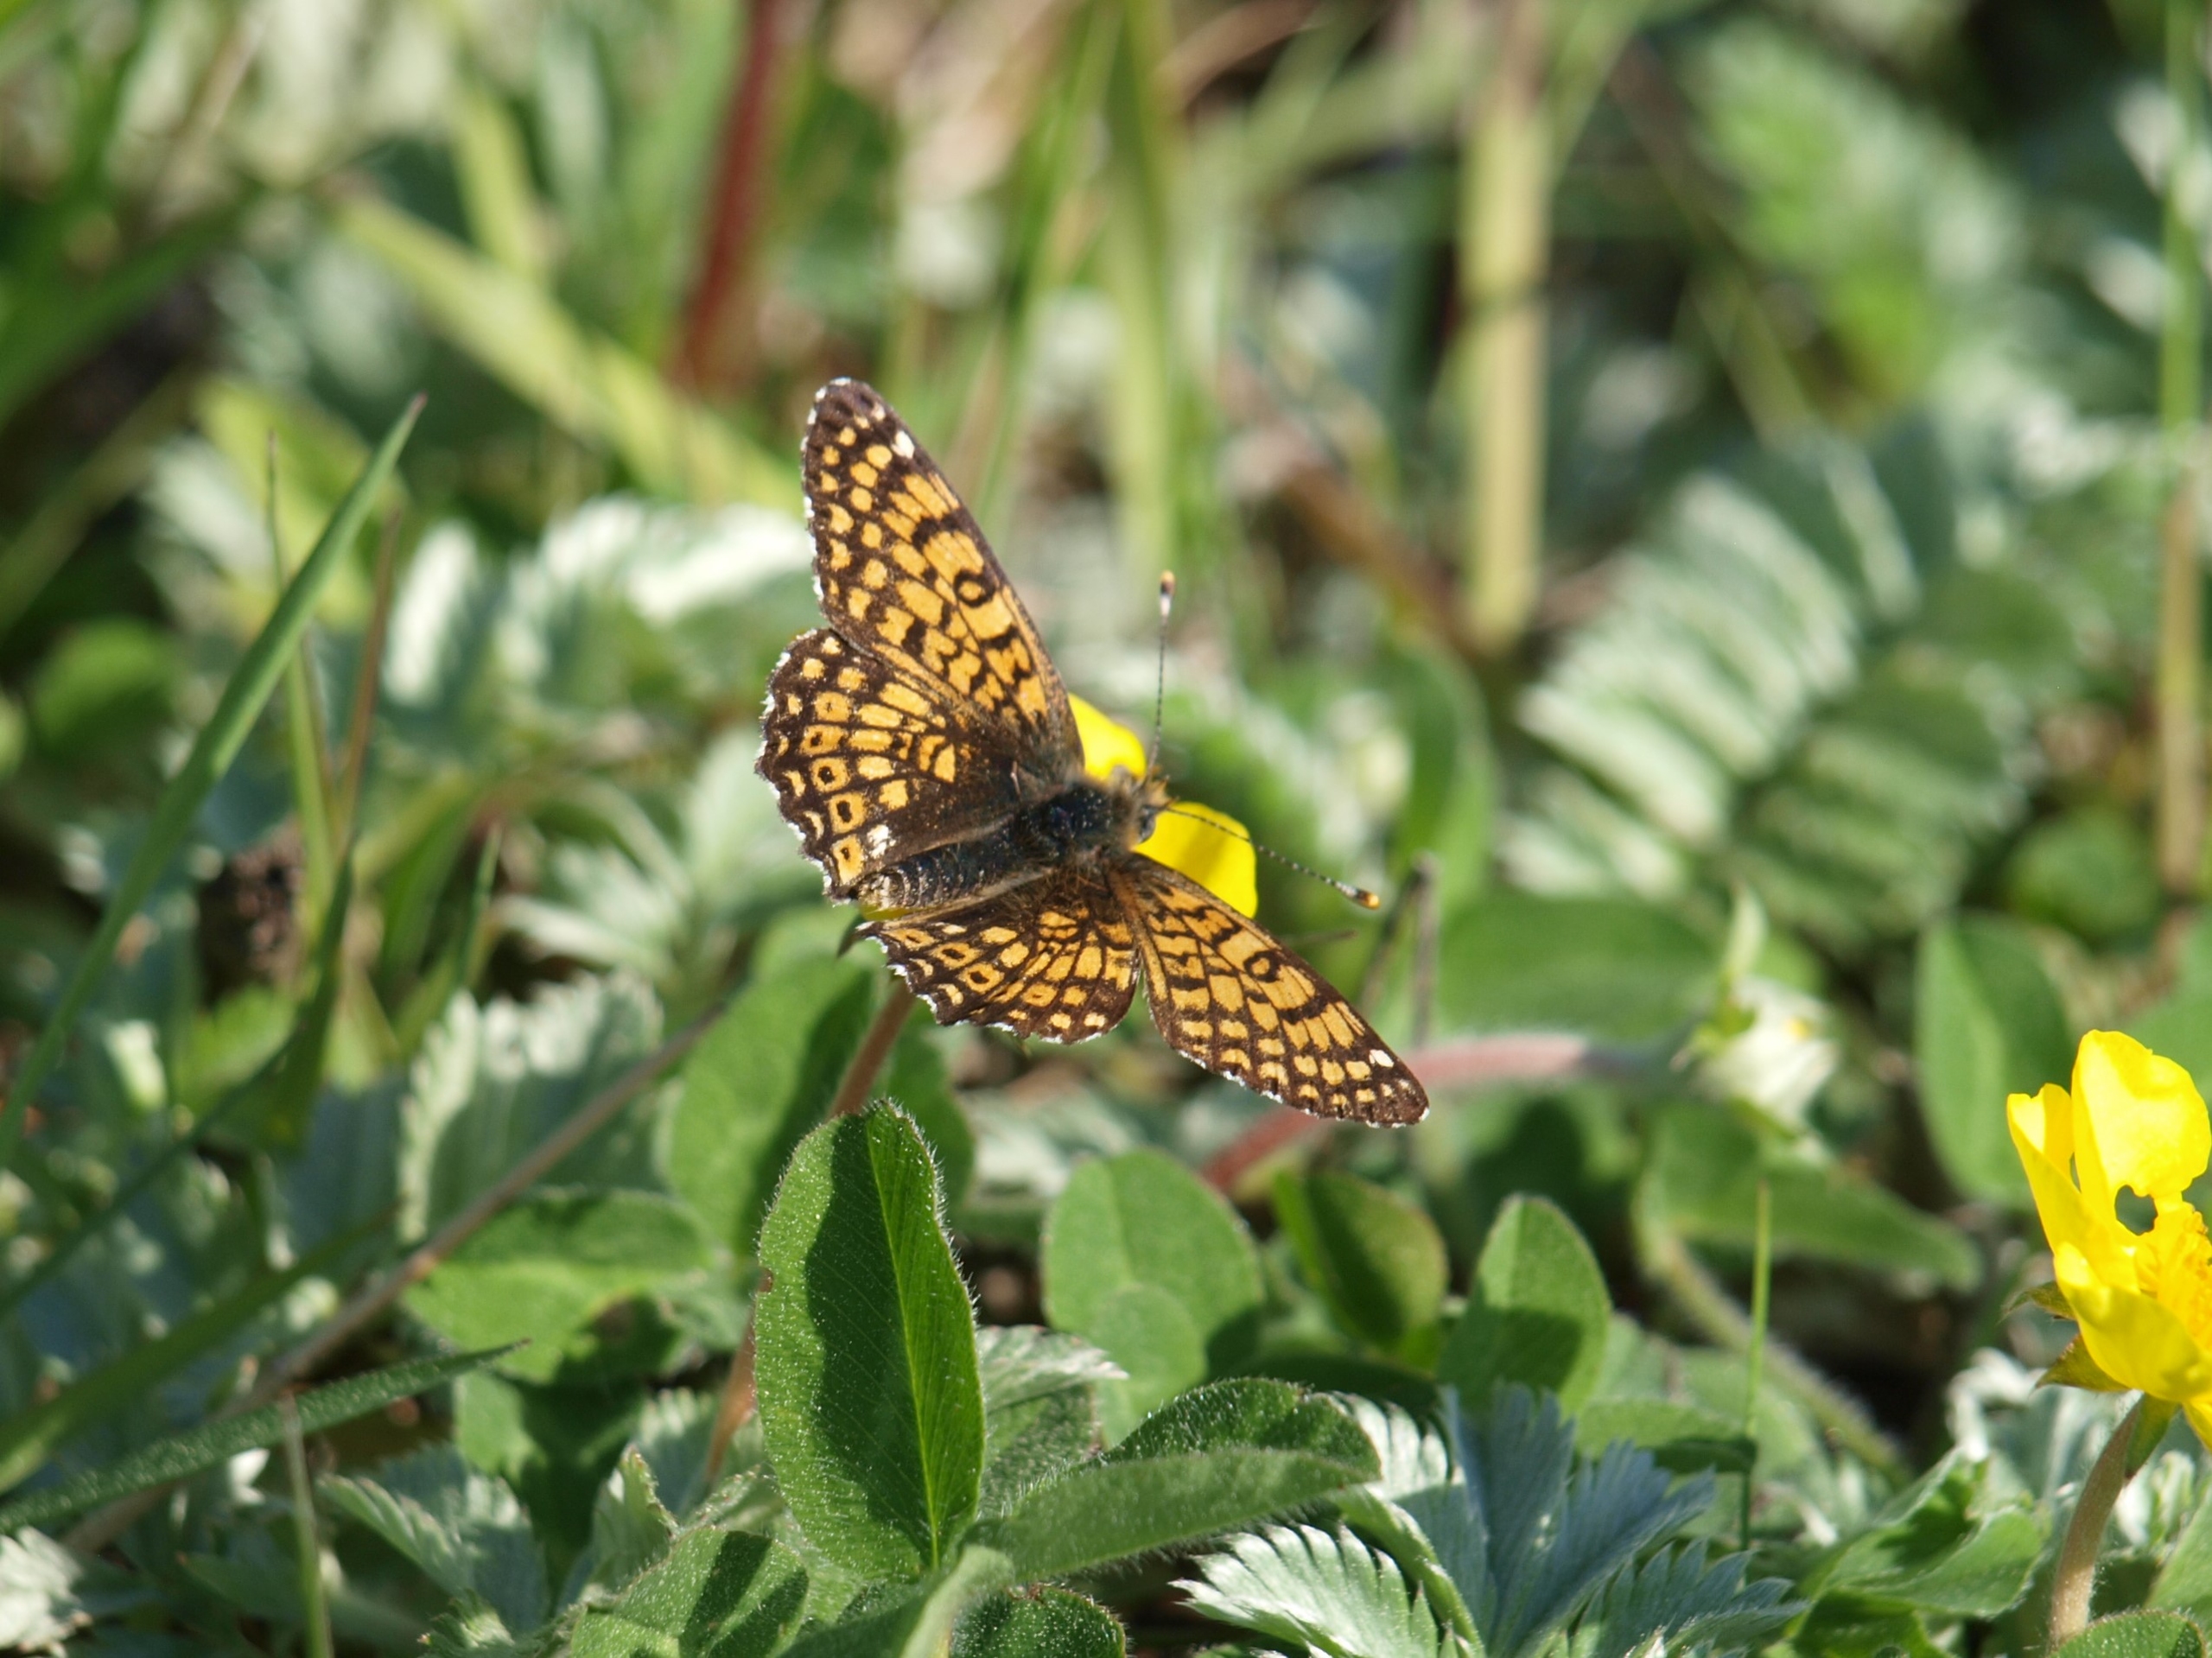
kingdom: Animalia
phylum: Arthropoda
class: Insecta
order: Lepidoptera
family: Nymphalidae
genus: Melitaea
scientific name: Melitaea cinxia
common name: Okkergul pletvinge
